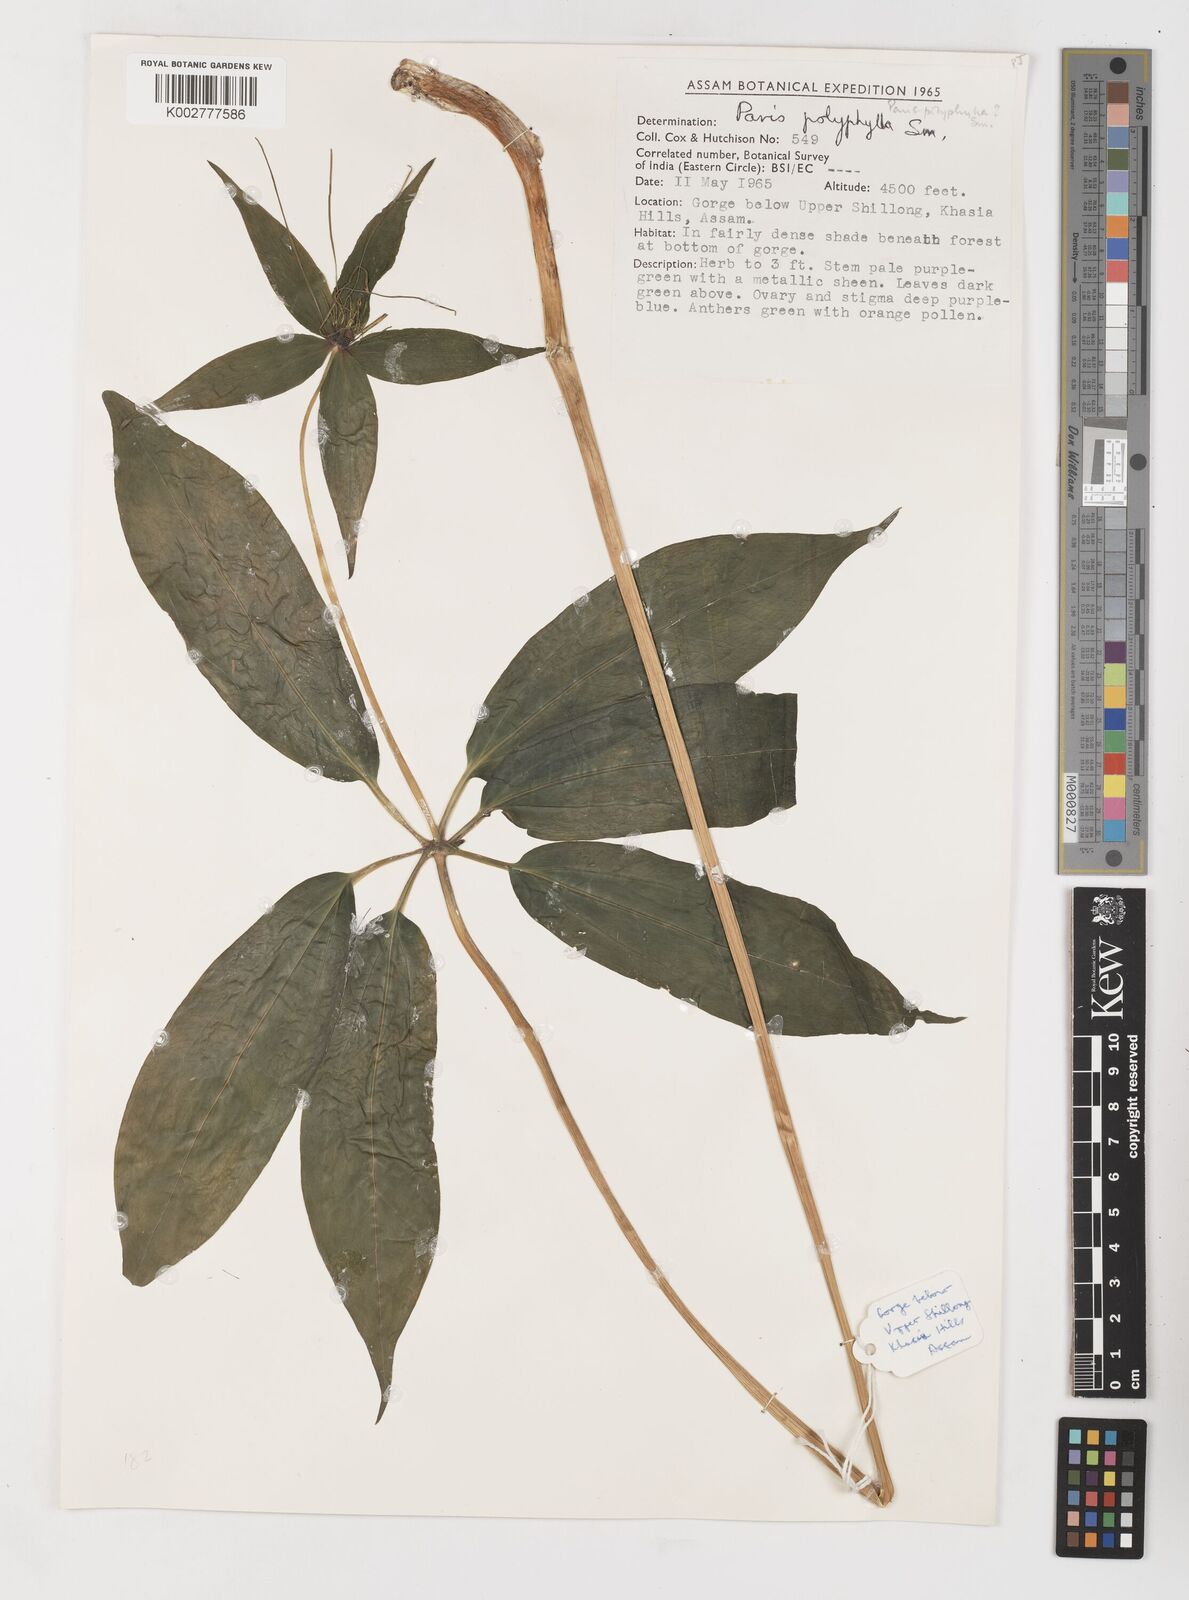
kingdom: Plantae
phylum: Tracheophyta
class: Liliopsida
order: Liliales
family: Melanthiaceae
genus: Paris
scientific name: Paris polyphylla
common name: Love apple
